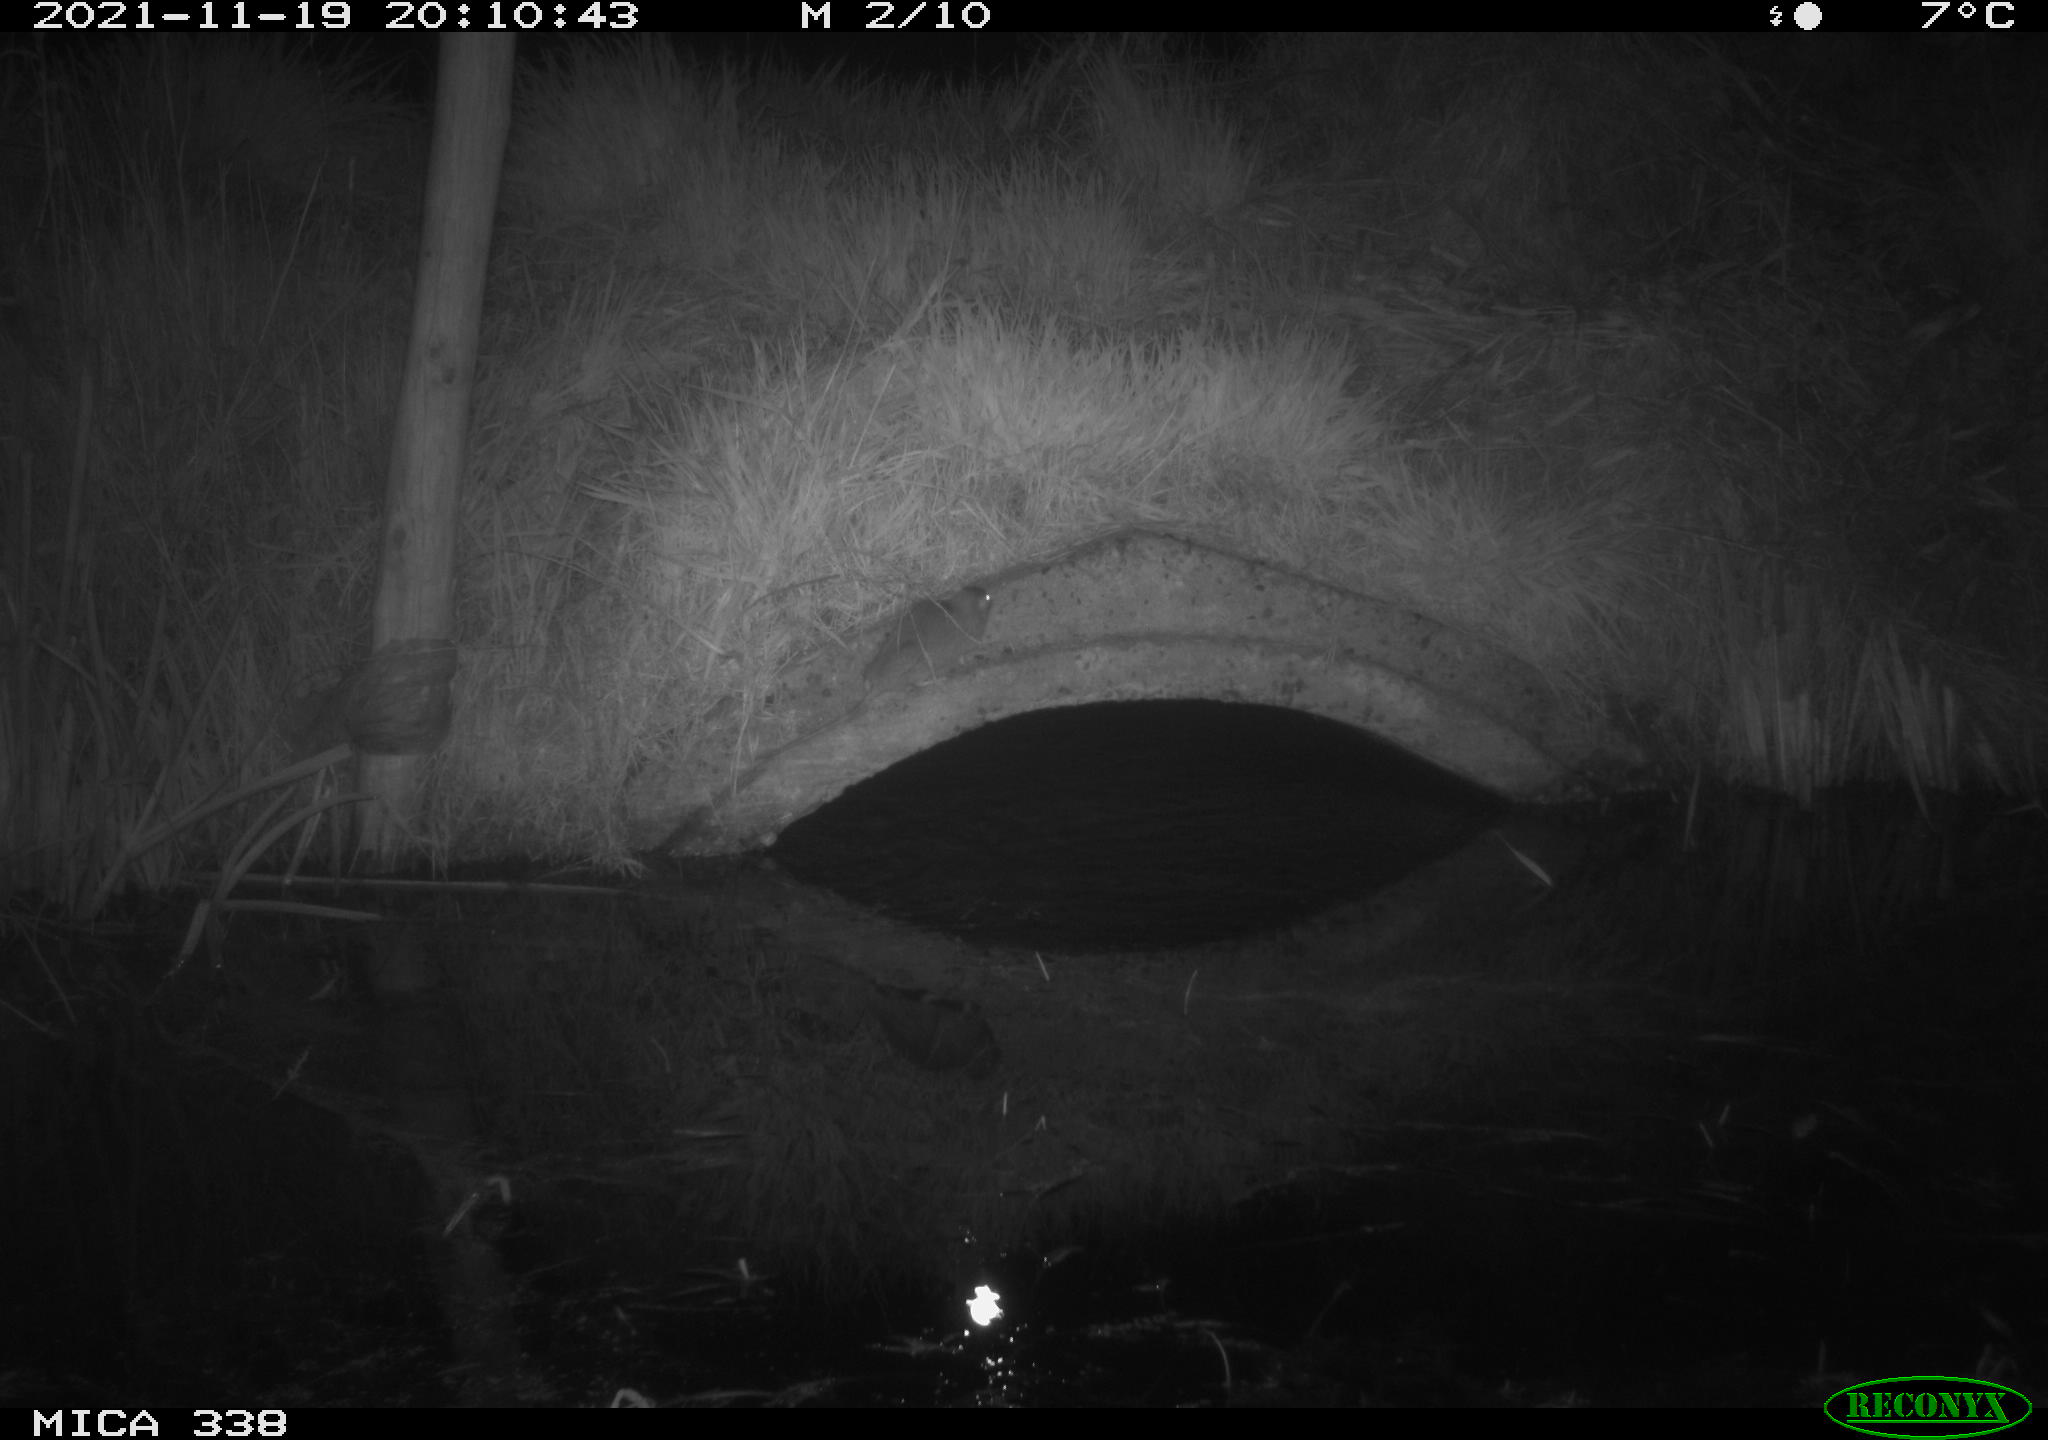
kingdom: Animalia
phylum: Chordata
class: Mammalia
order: Rodentia
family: Muridae
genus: Rattus
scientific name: Rattus norvegicus
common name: Brown rat
